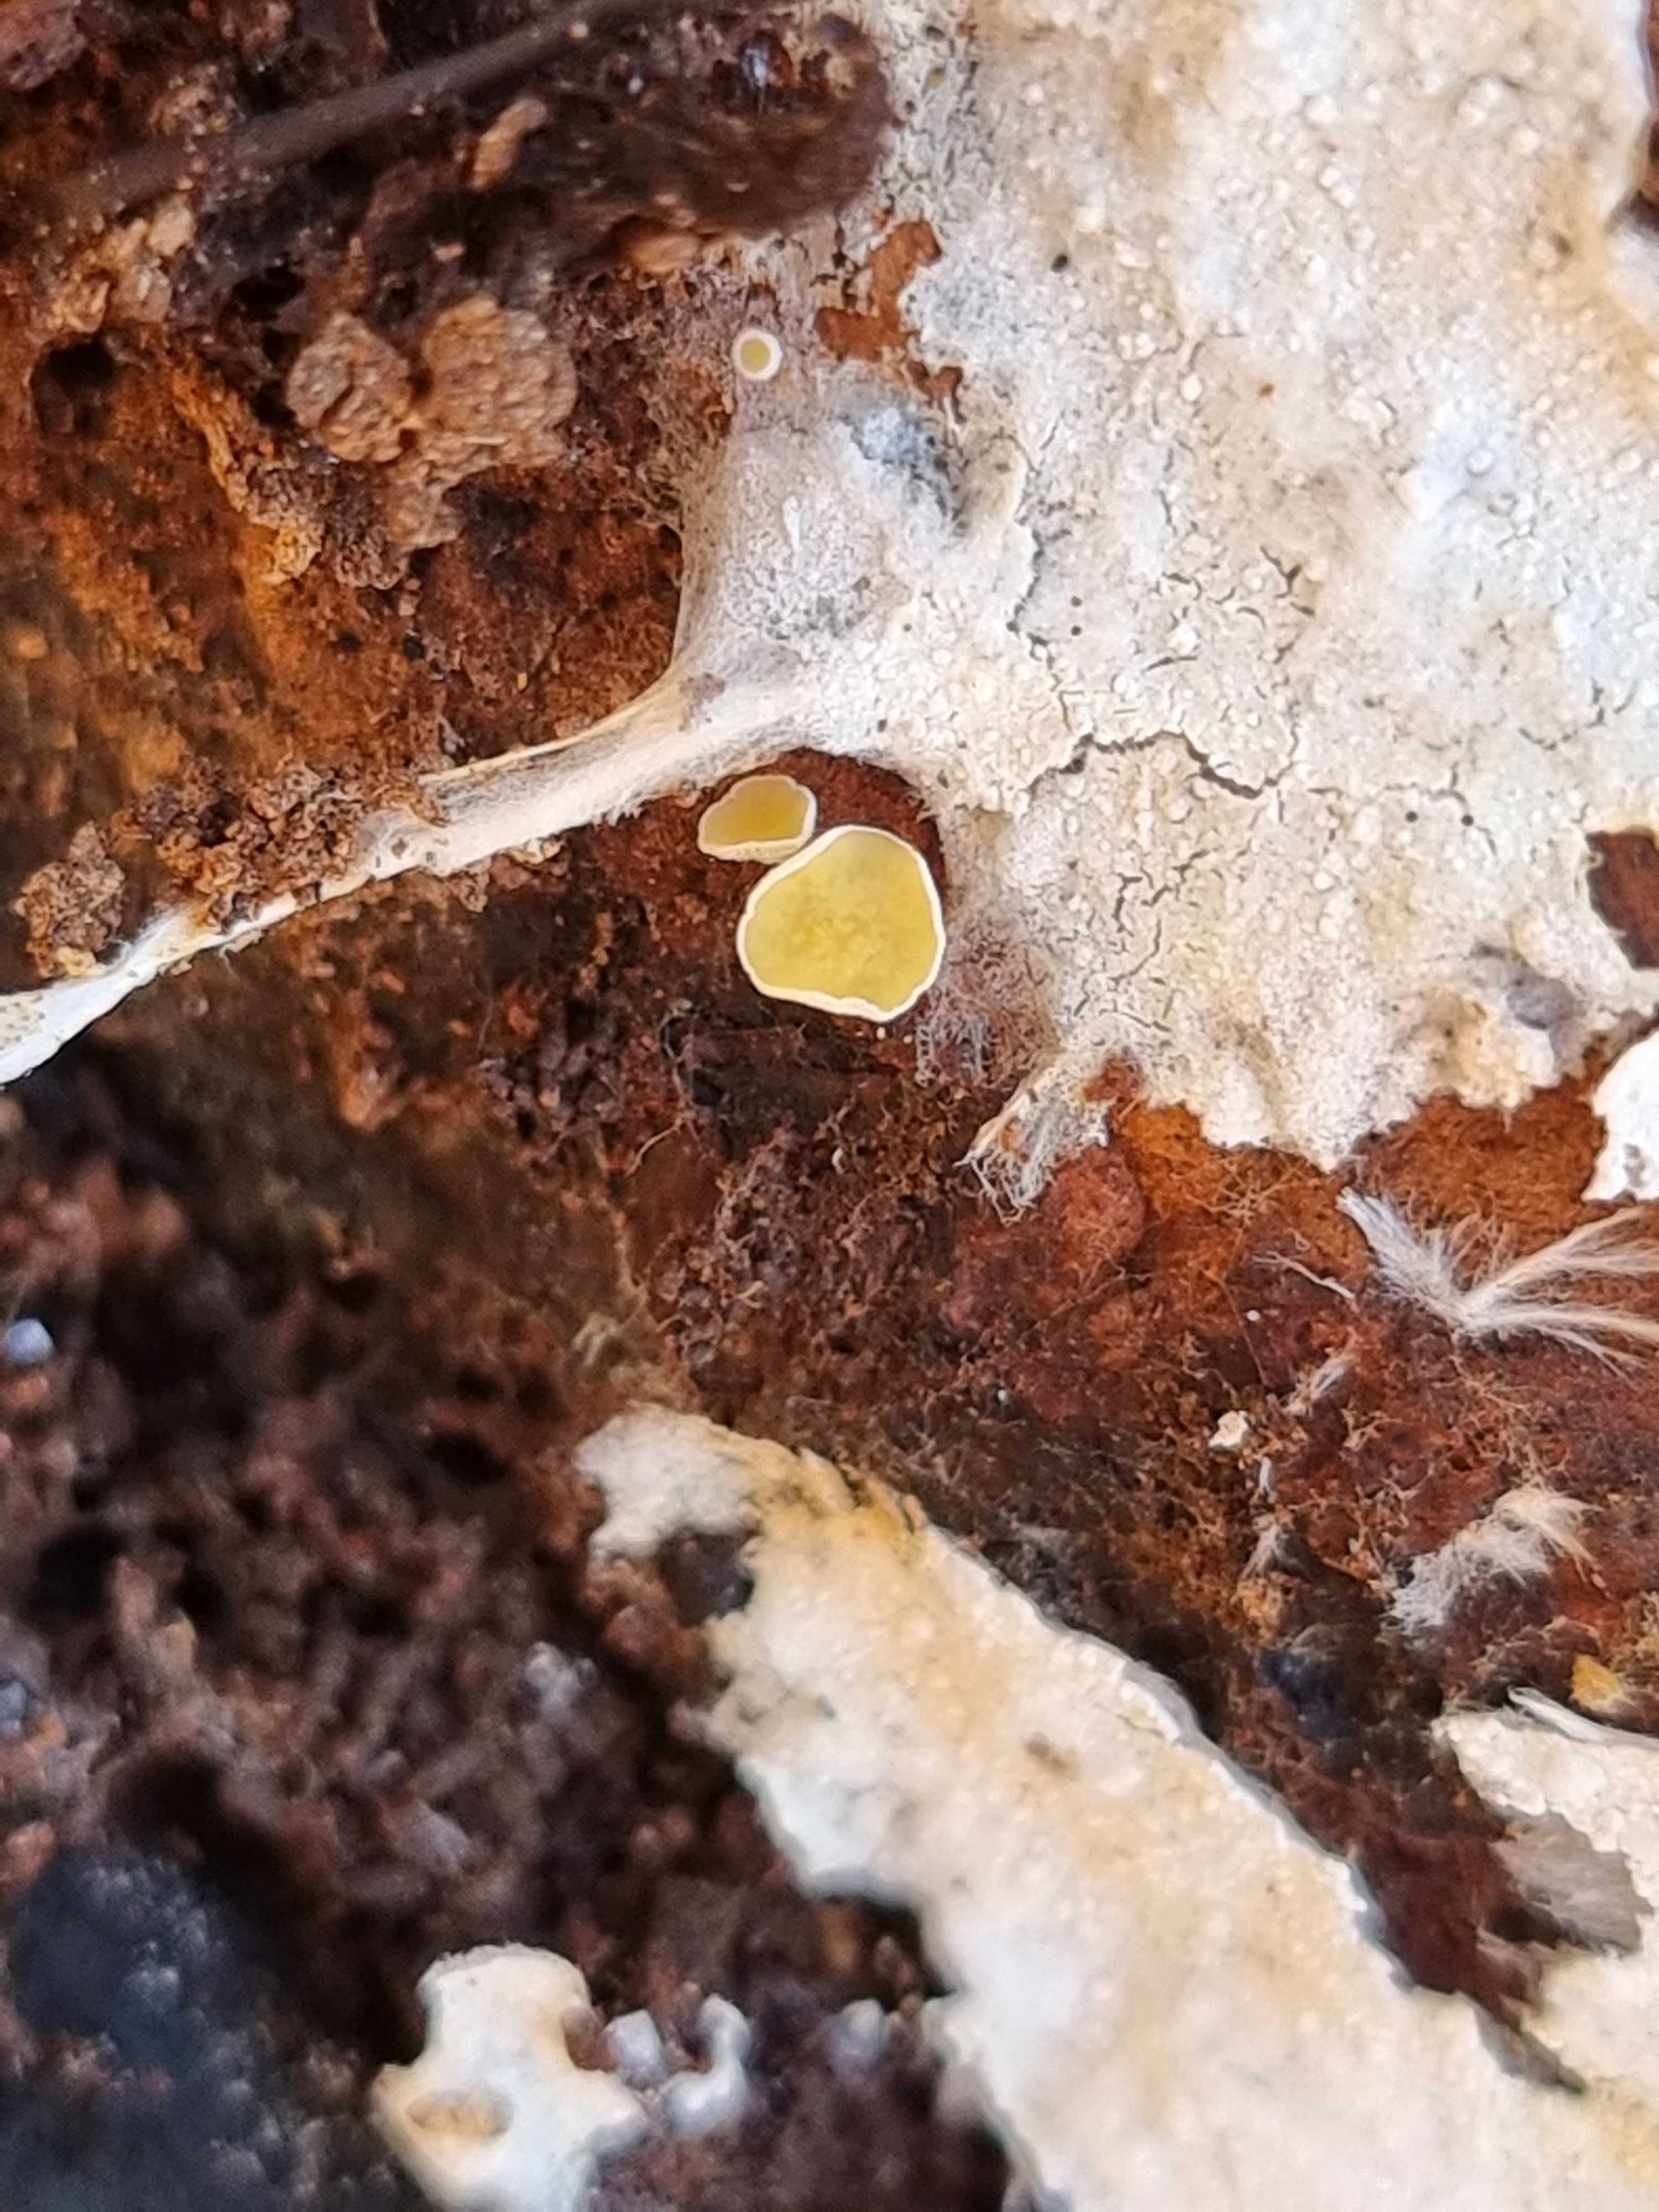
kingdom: Fungi
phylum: Ascomycota
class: Leotiomycetes
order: Helotiales
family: Lachnaceae
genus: Lachnellula
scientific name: Lachnellula
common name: frynseskive
